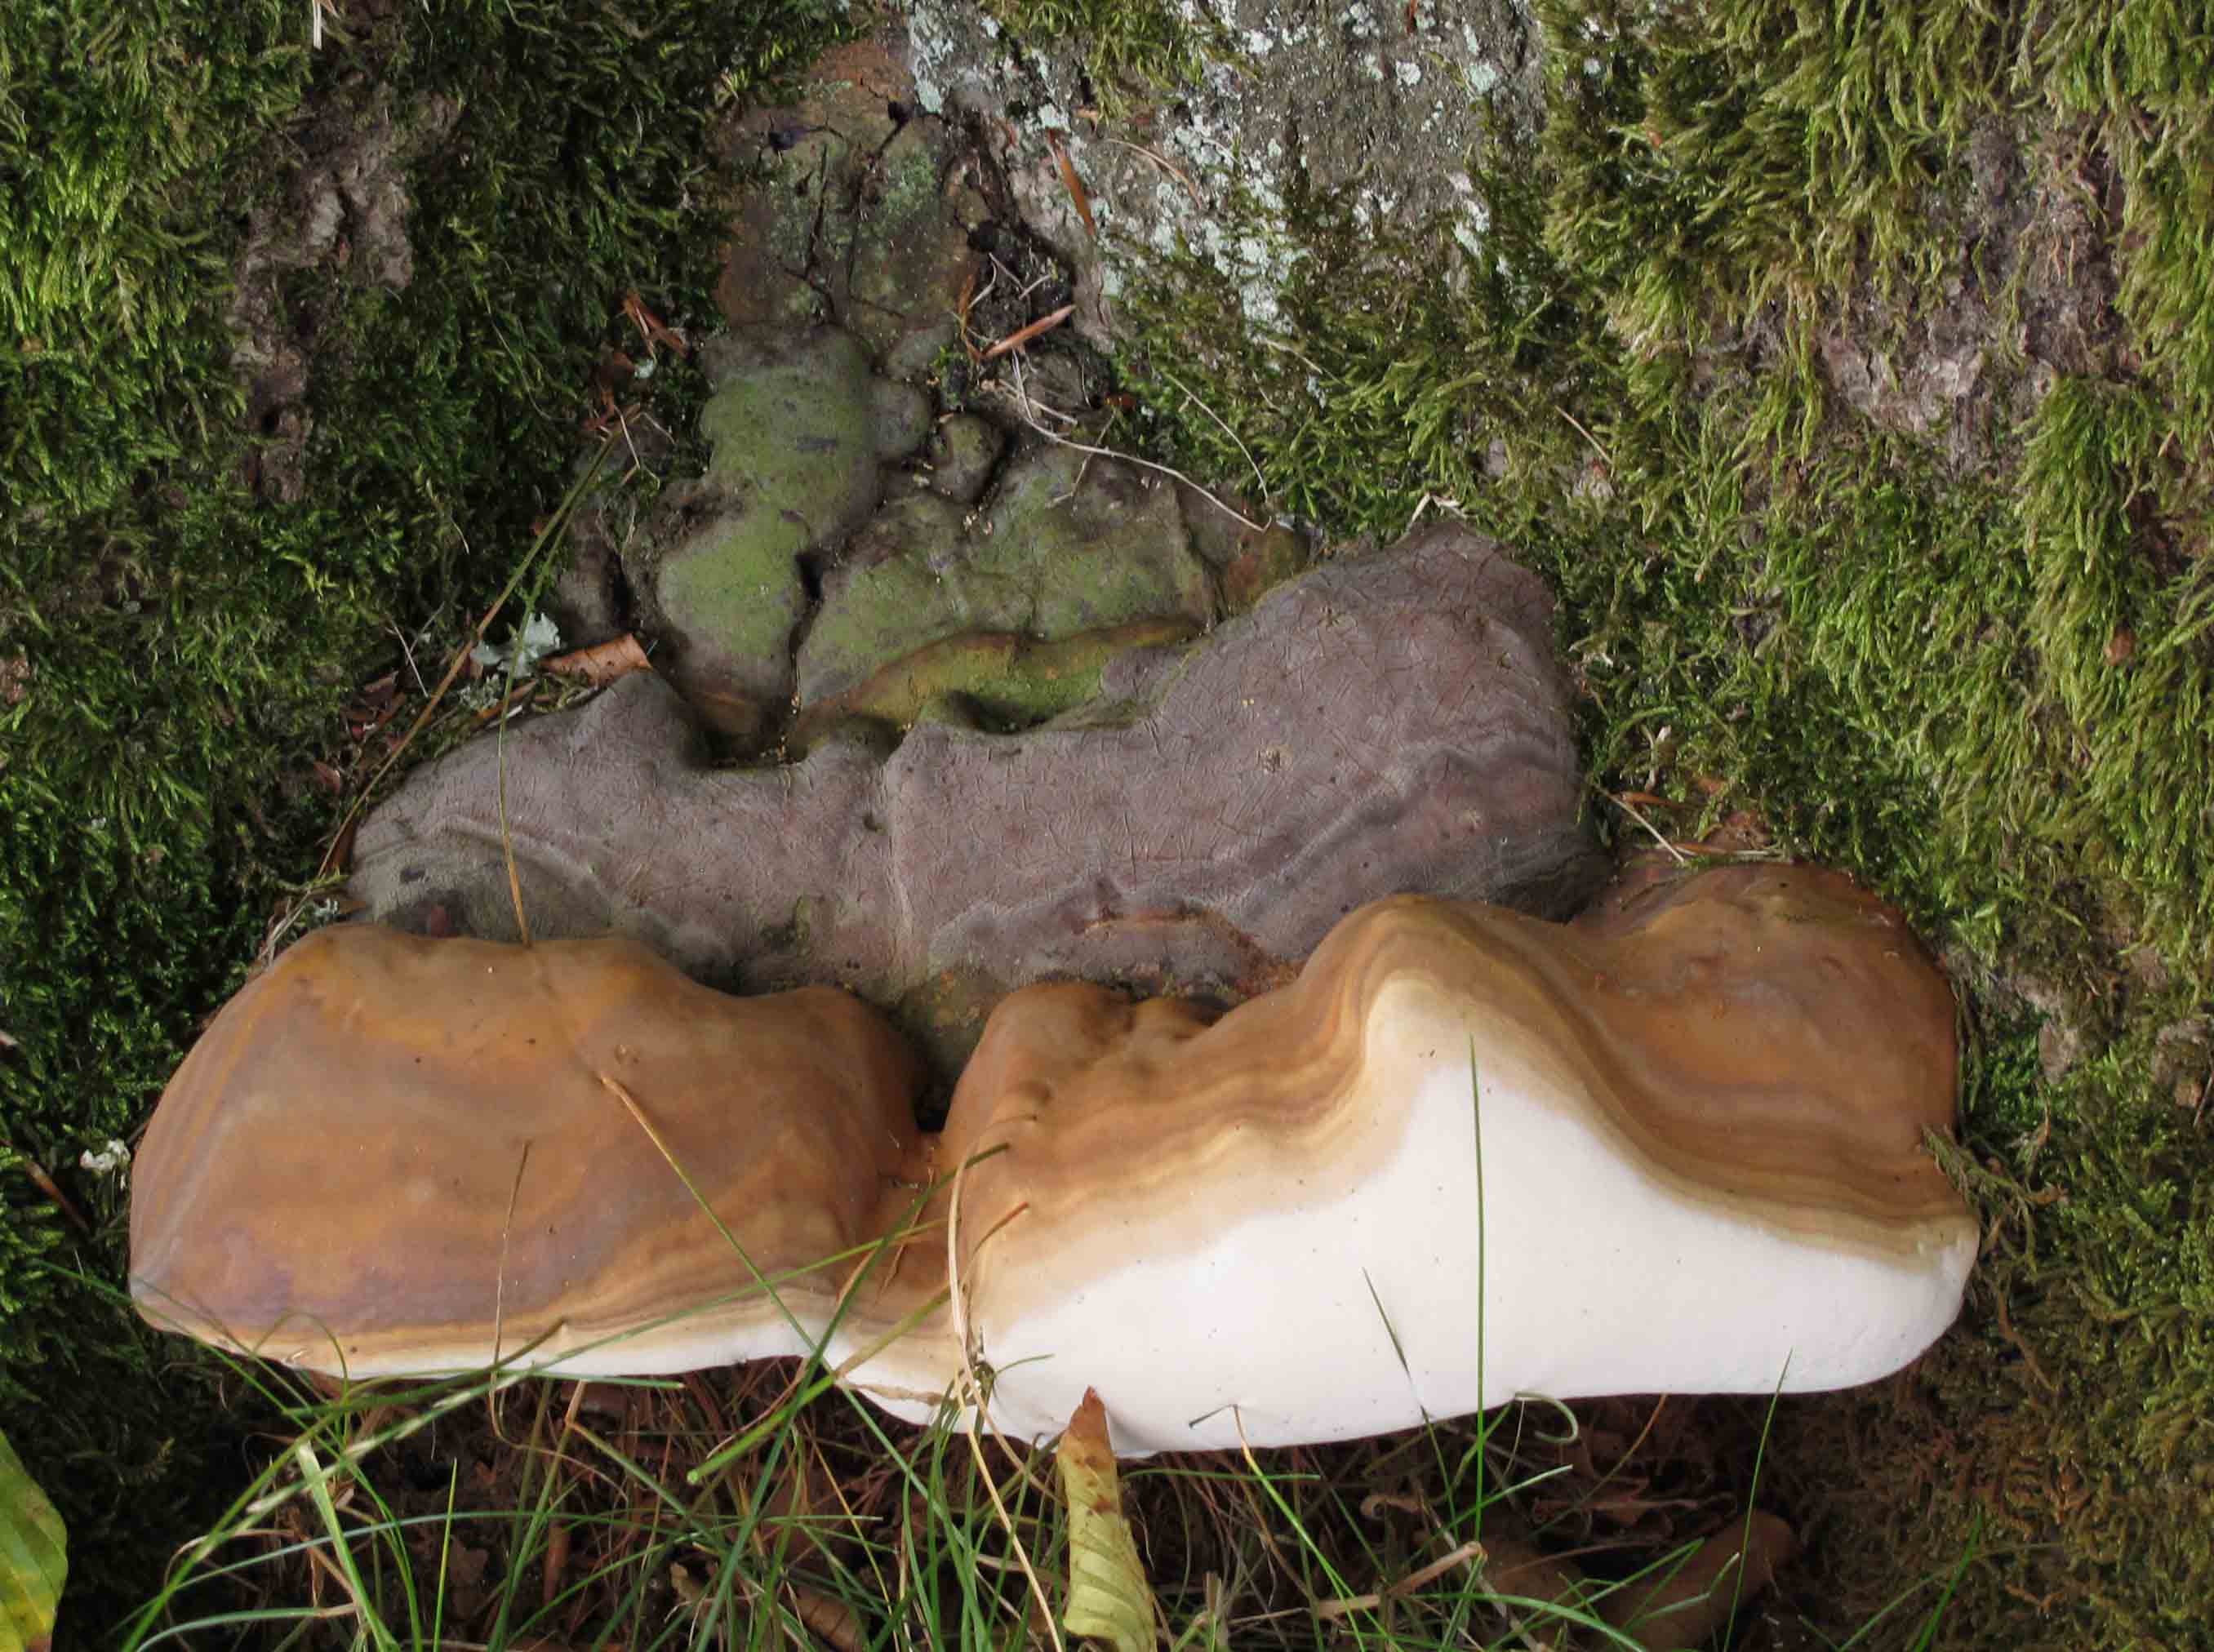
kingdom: Fungi
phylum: Basidiomycota
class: Agaricomycetes
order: Polyporales
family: Polyporaceae
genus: Ganoderma
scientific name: Ganoderma pfeifferi
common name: kobberrød lakporesvamp
